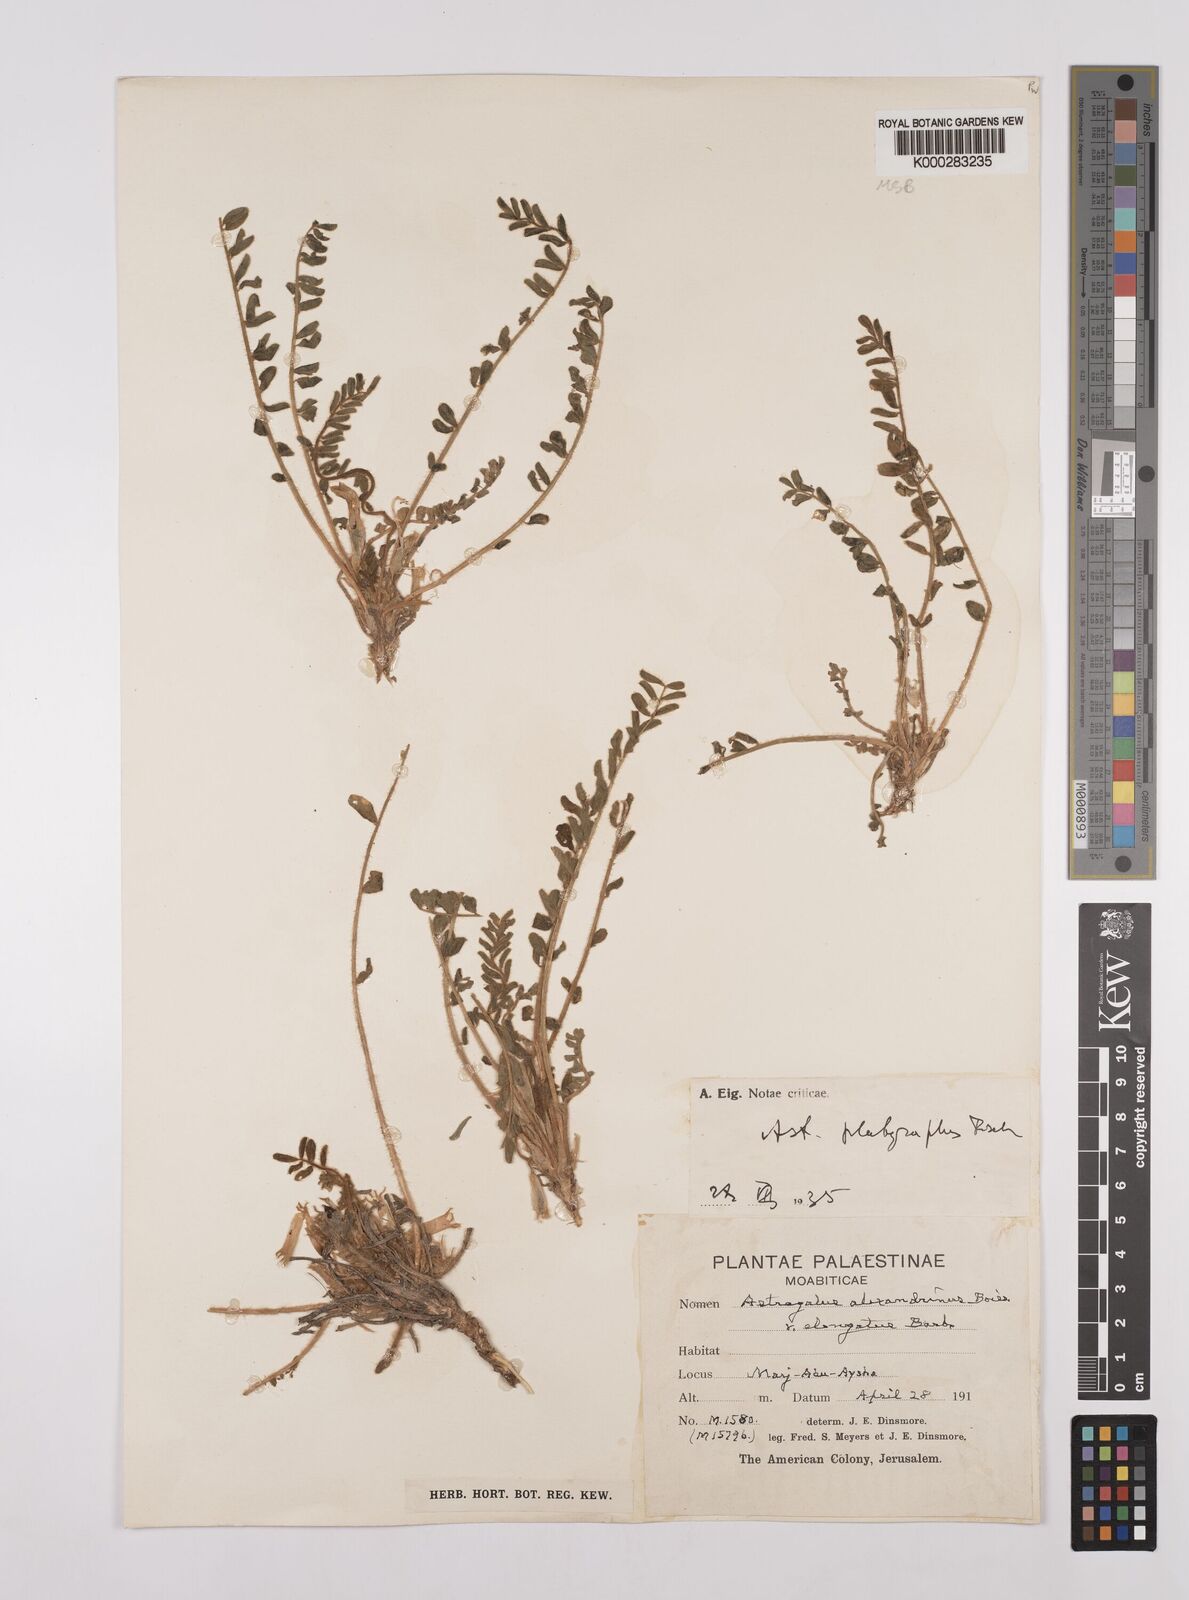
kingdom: Plantae
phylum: Tracheophyta
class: Magnoliopsida
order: Fabales
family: Fabaceae
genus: Astragalus
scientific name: Astragalus caprinus
